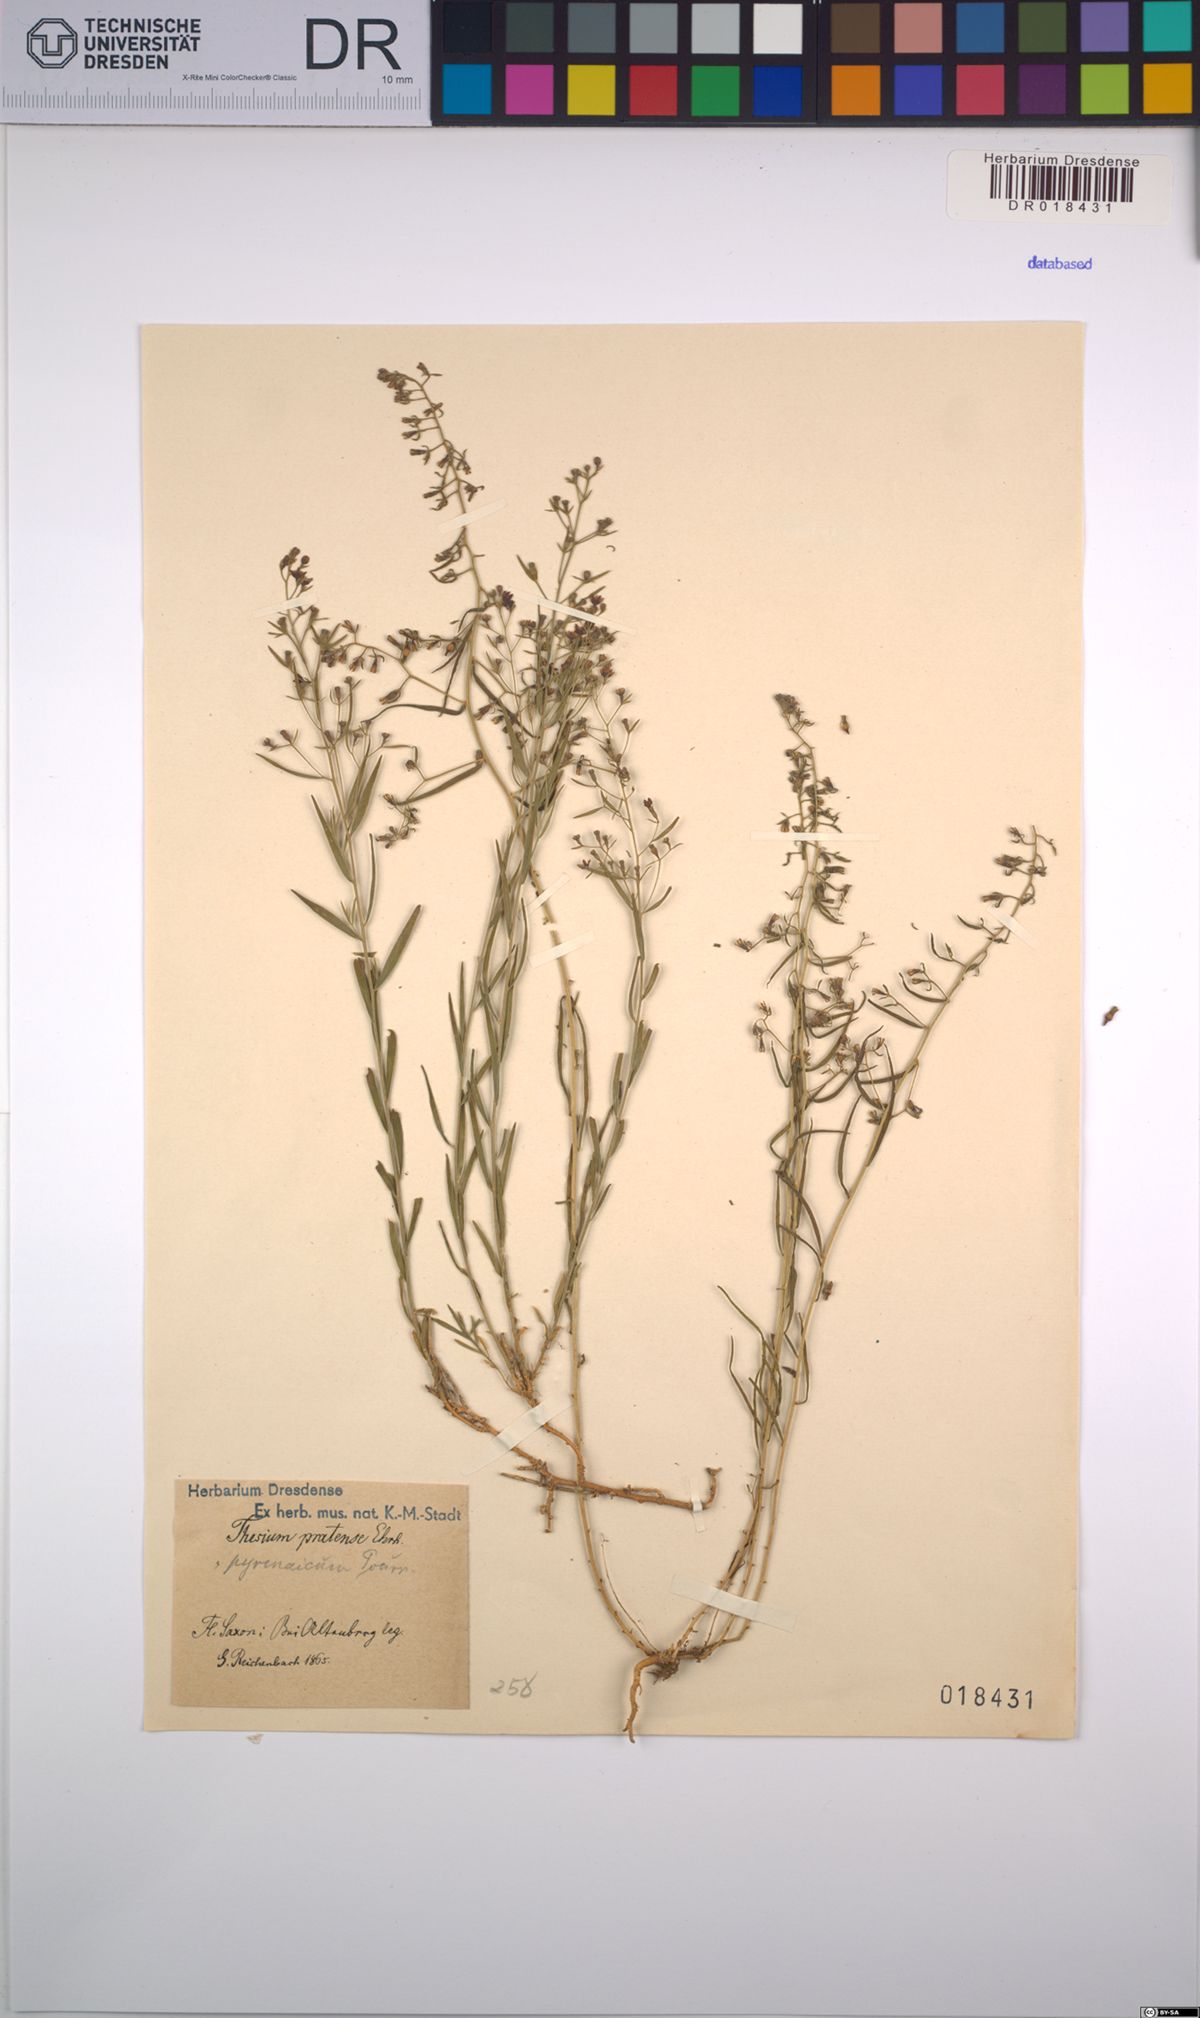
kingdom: Plantae
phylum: Tracheophyta
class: Magnoliopsida
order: Santalales
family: Thesiaceae
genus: Thesium
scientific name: Thesium pyrenaicum
